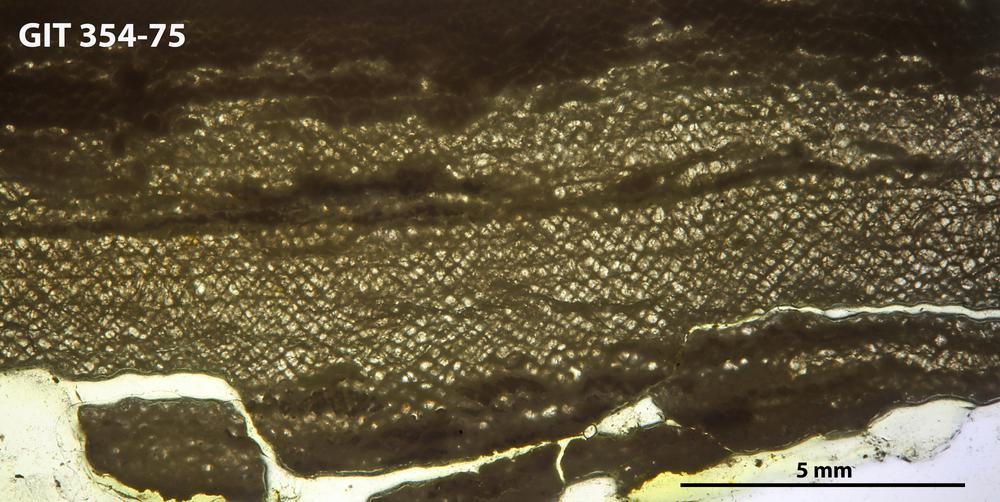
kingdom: Animalia
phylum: Porifera
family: Ecclimadictyidae
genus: Ecclimadictyon
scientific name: Ecclimadictyon laminaeungulatum
